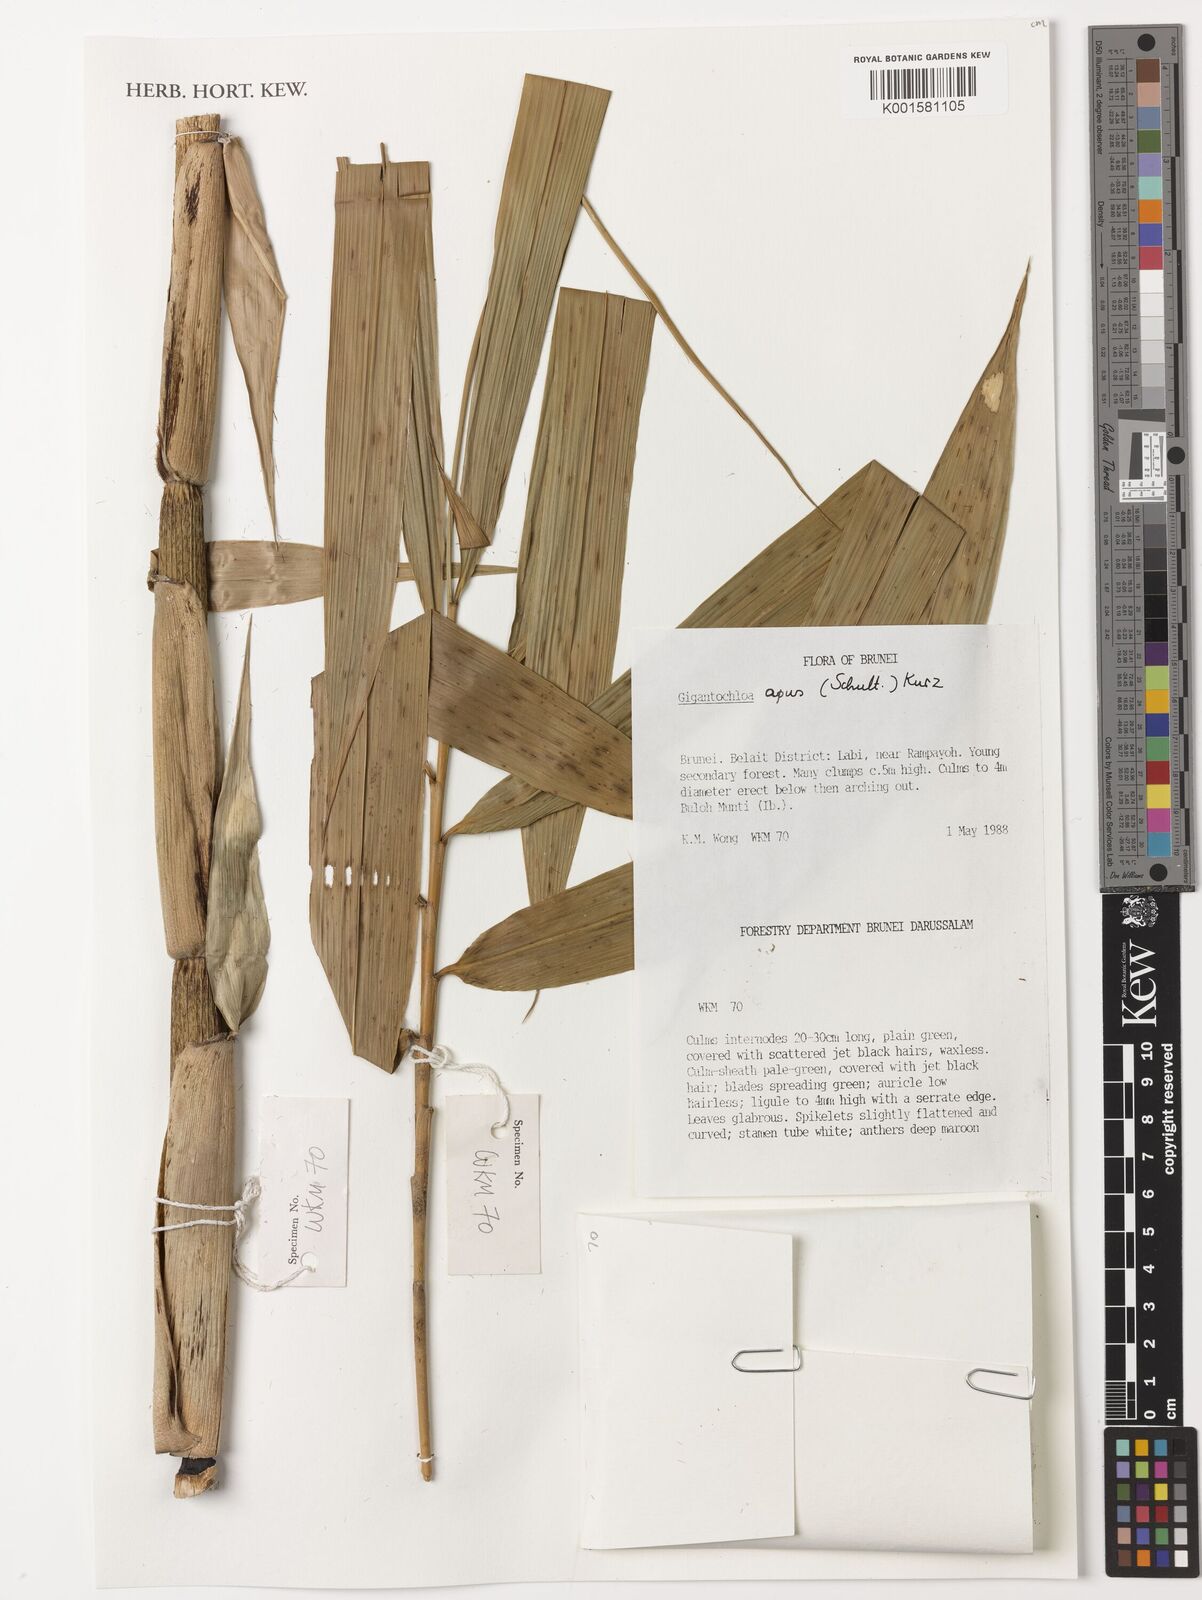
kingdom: Plantae
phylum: Tracheophyta
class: Liliopsida
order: Poales
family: Poaceae
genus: Gigantochloa
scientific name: Gigantochloa apus
